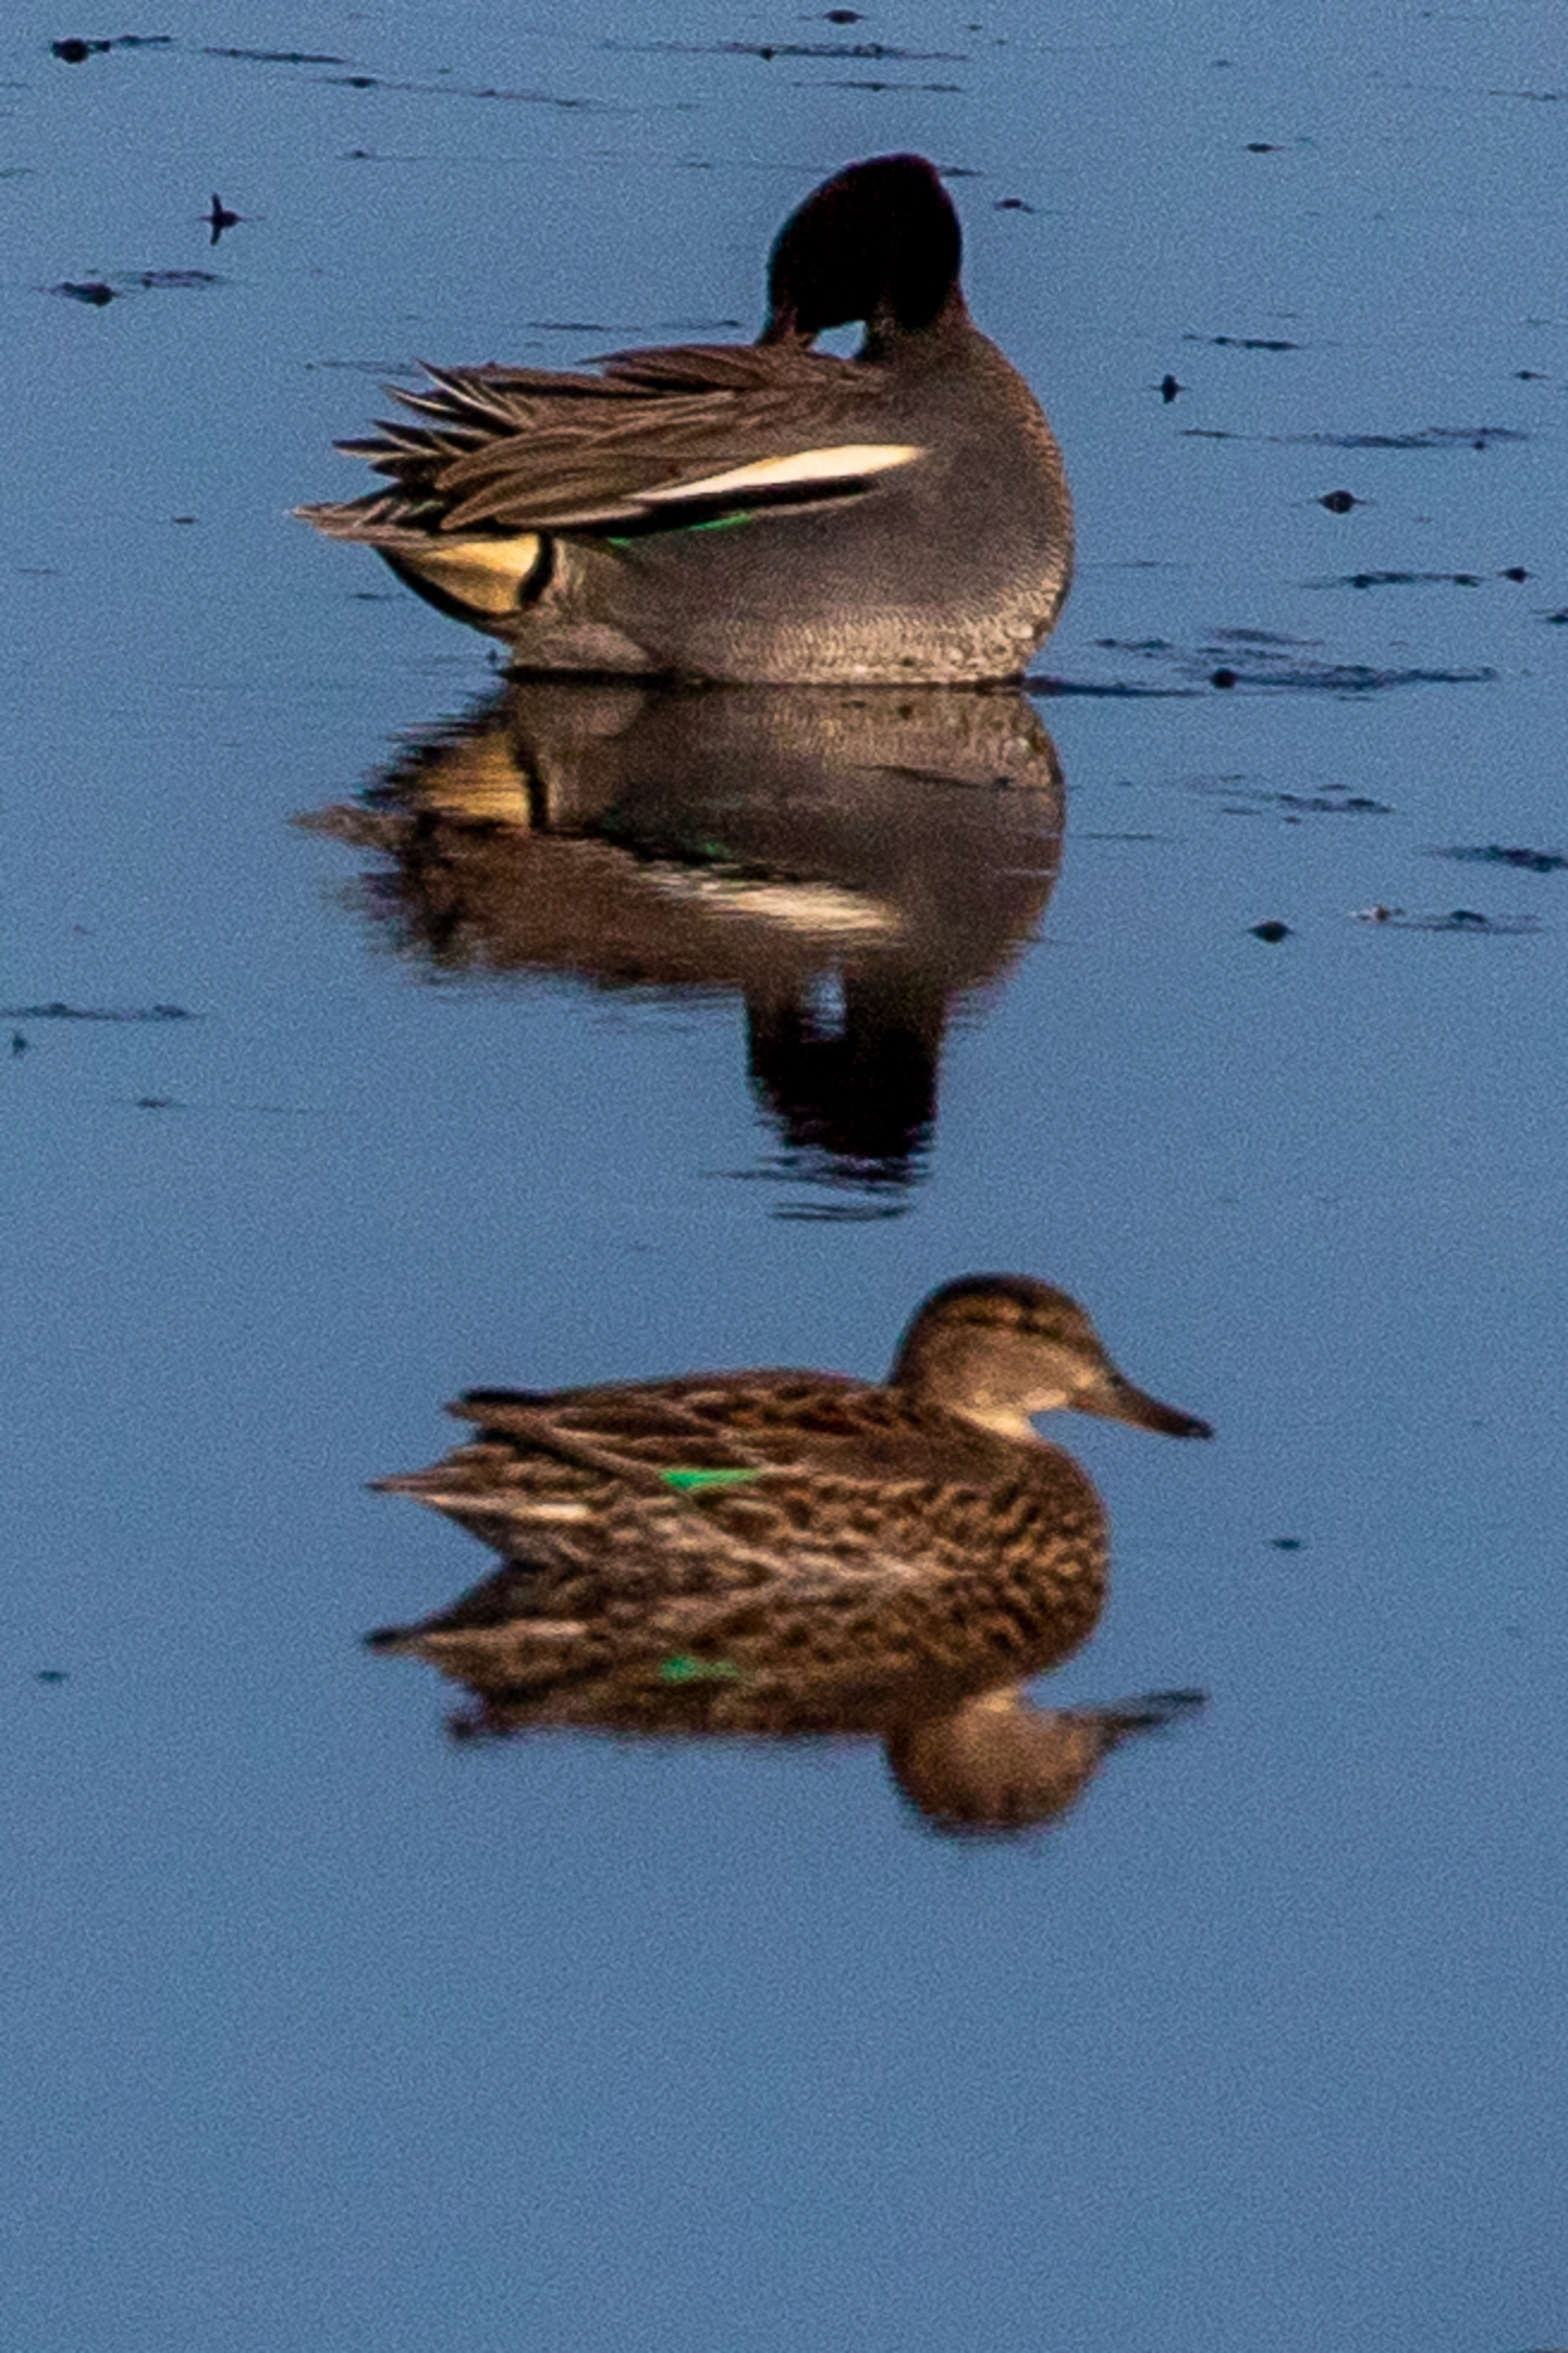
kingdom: Animalia
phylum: Chordata
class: Aves
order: Anseriformes
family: Anatidae
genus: Anas
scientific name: Anas crecca
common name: Krikand
